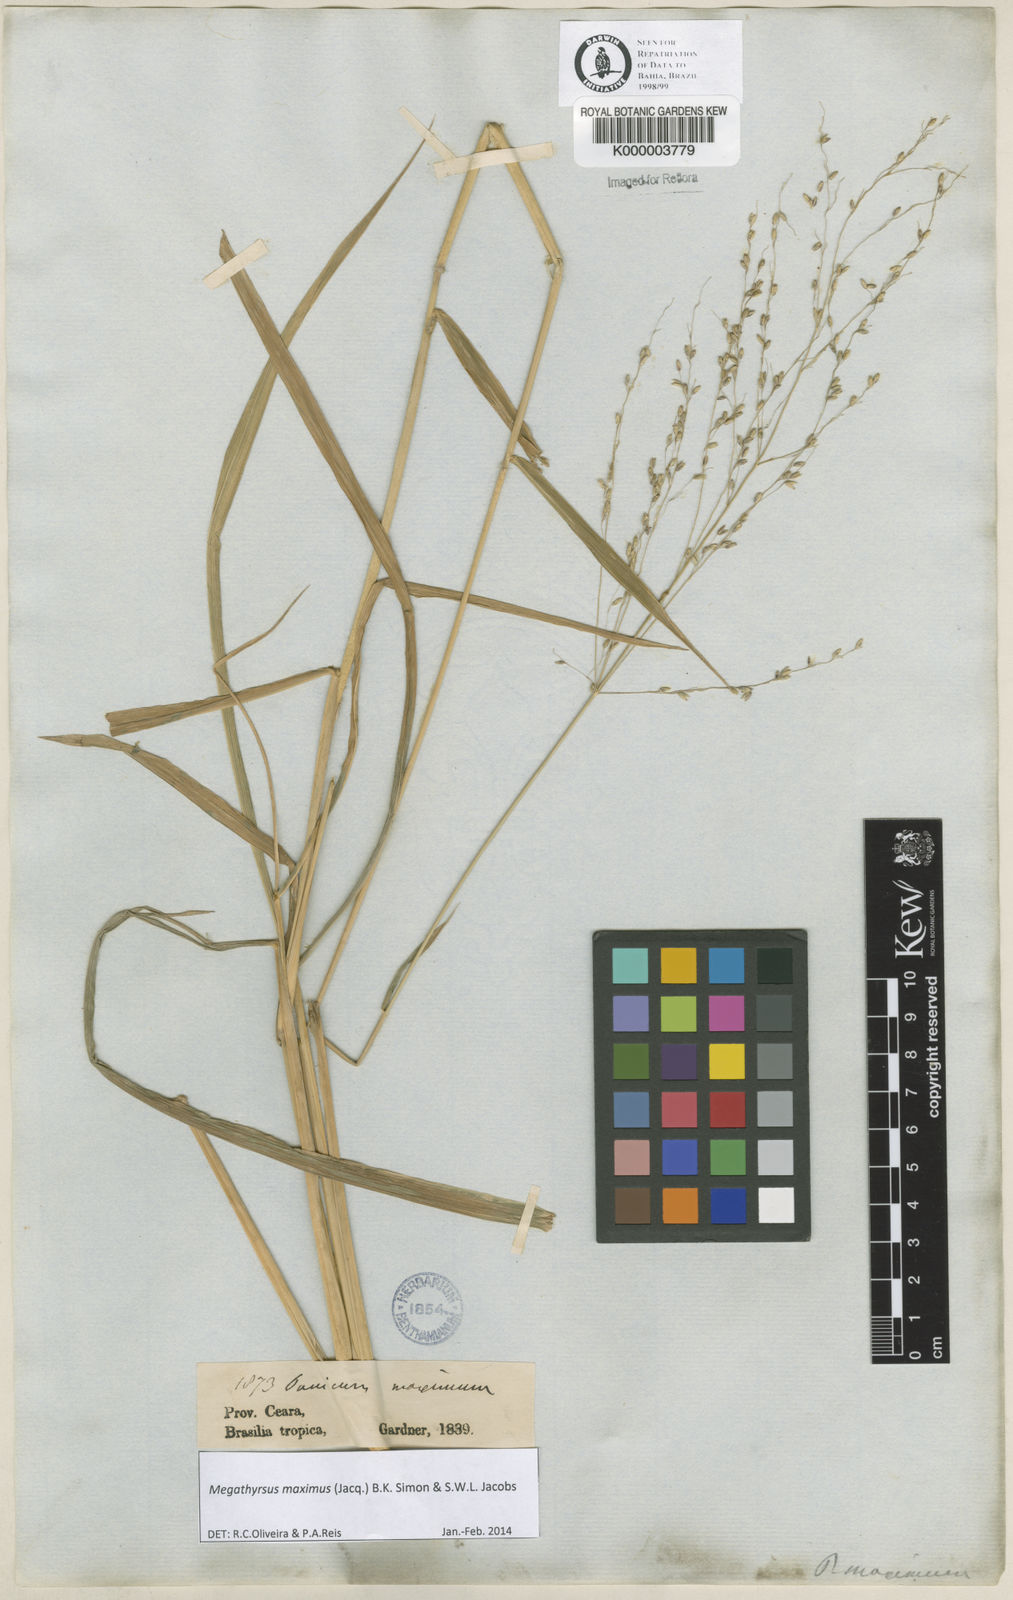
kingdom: Plantae
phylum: Tracheophyta
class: Liliopsida
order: Poales
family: Poaceae
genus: Megathyrsus
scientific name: Megathyrsus maximus
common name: Guineagrass
